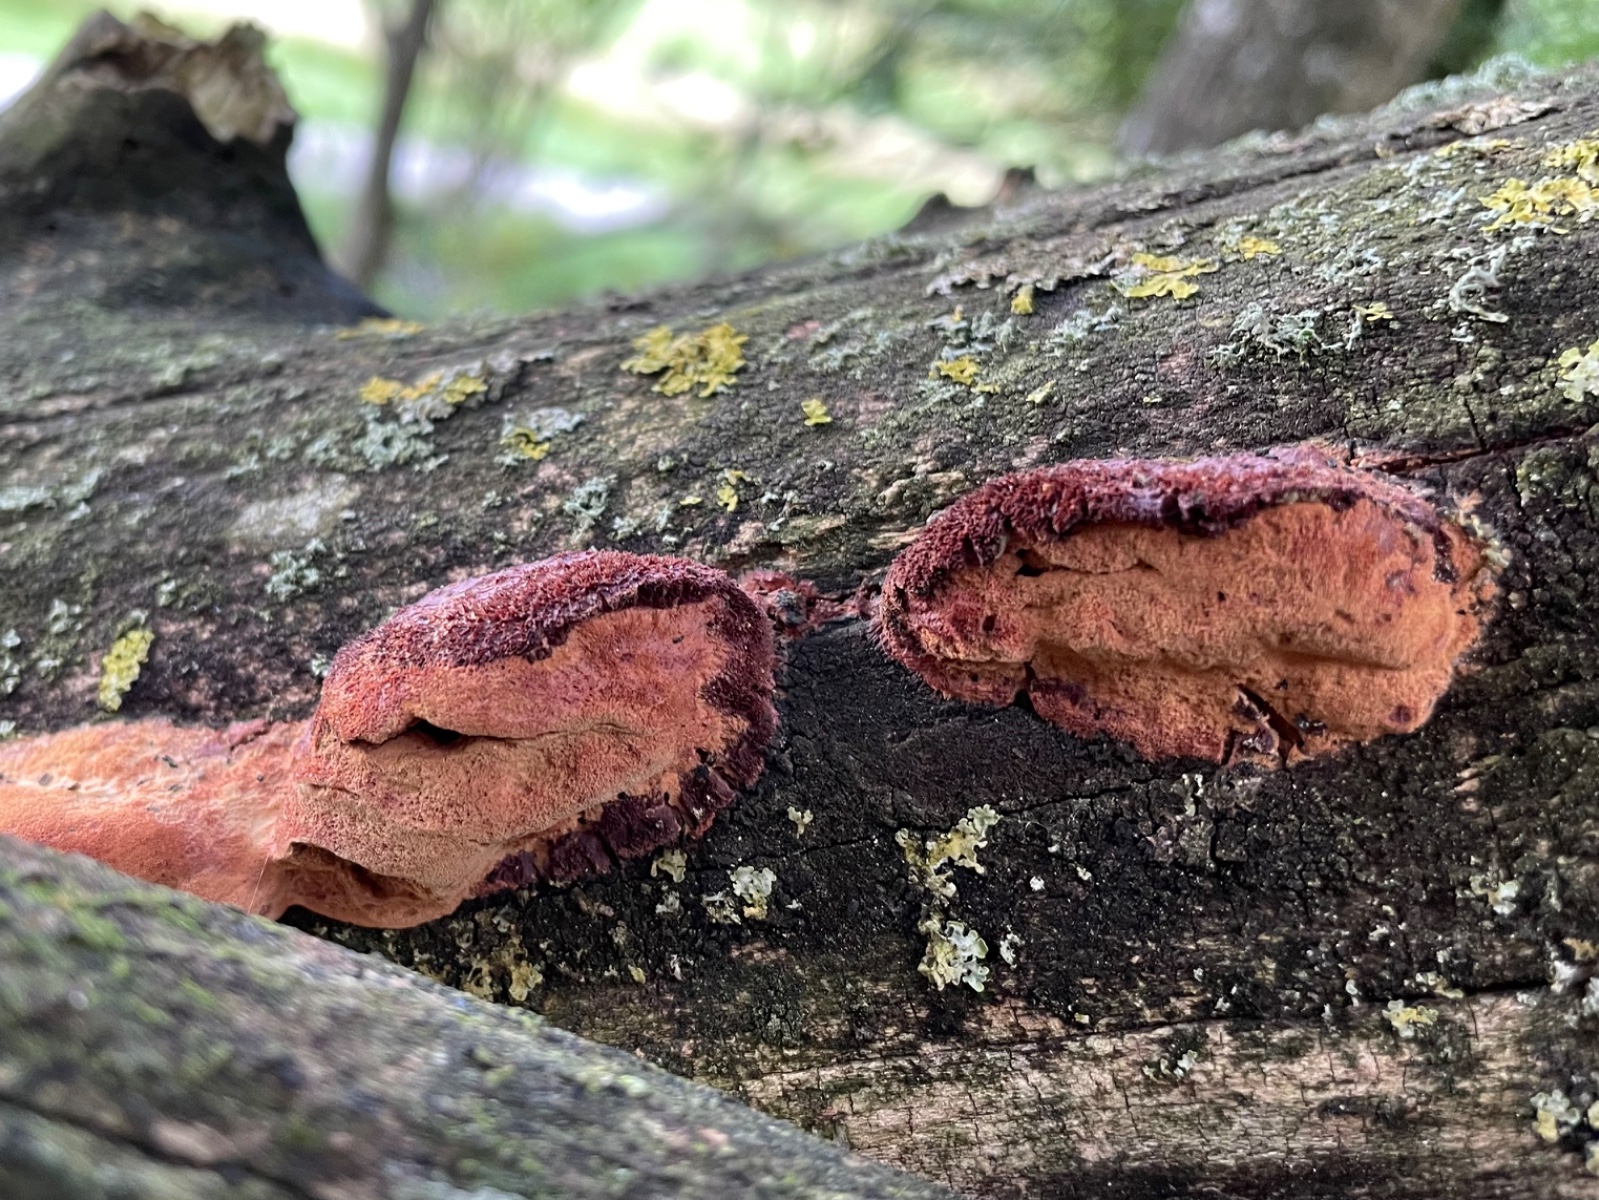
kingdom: Fungi
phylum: Basidiomycota
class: Agaricomycetes
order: Polyporales
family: Phanerochaetaceae
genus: Hapalopilus
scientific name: Hapalopilus rutilans
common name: rødlig okkerporesvamp
